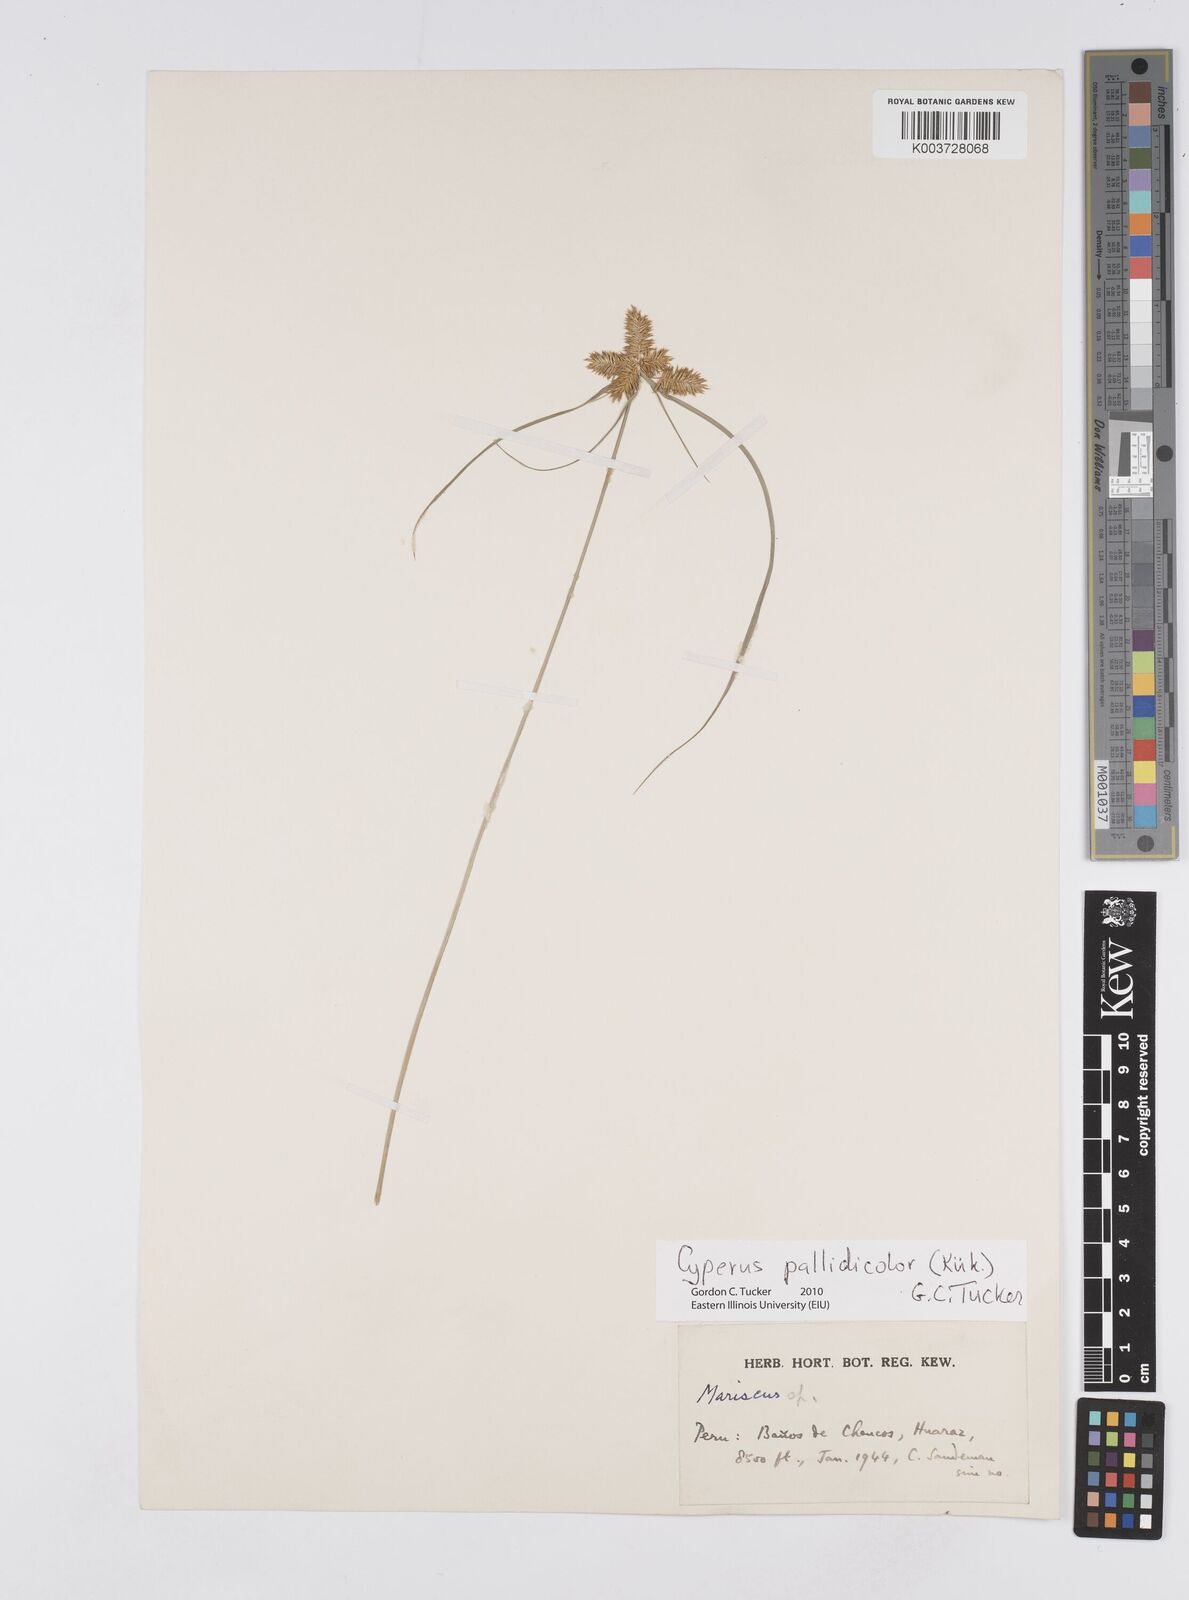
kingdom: Plantae
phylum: Tracheophyta
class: Liliopsida
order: Poales
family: Cyperaceae
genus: Cyperus
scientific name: Cyperus pallidicolor
